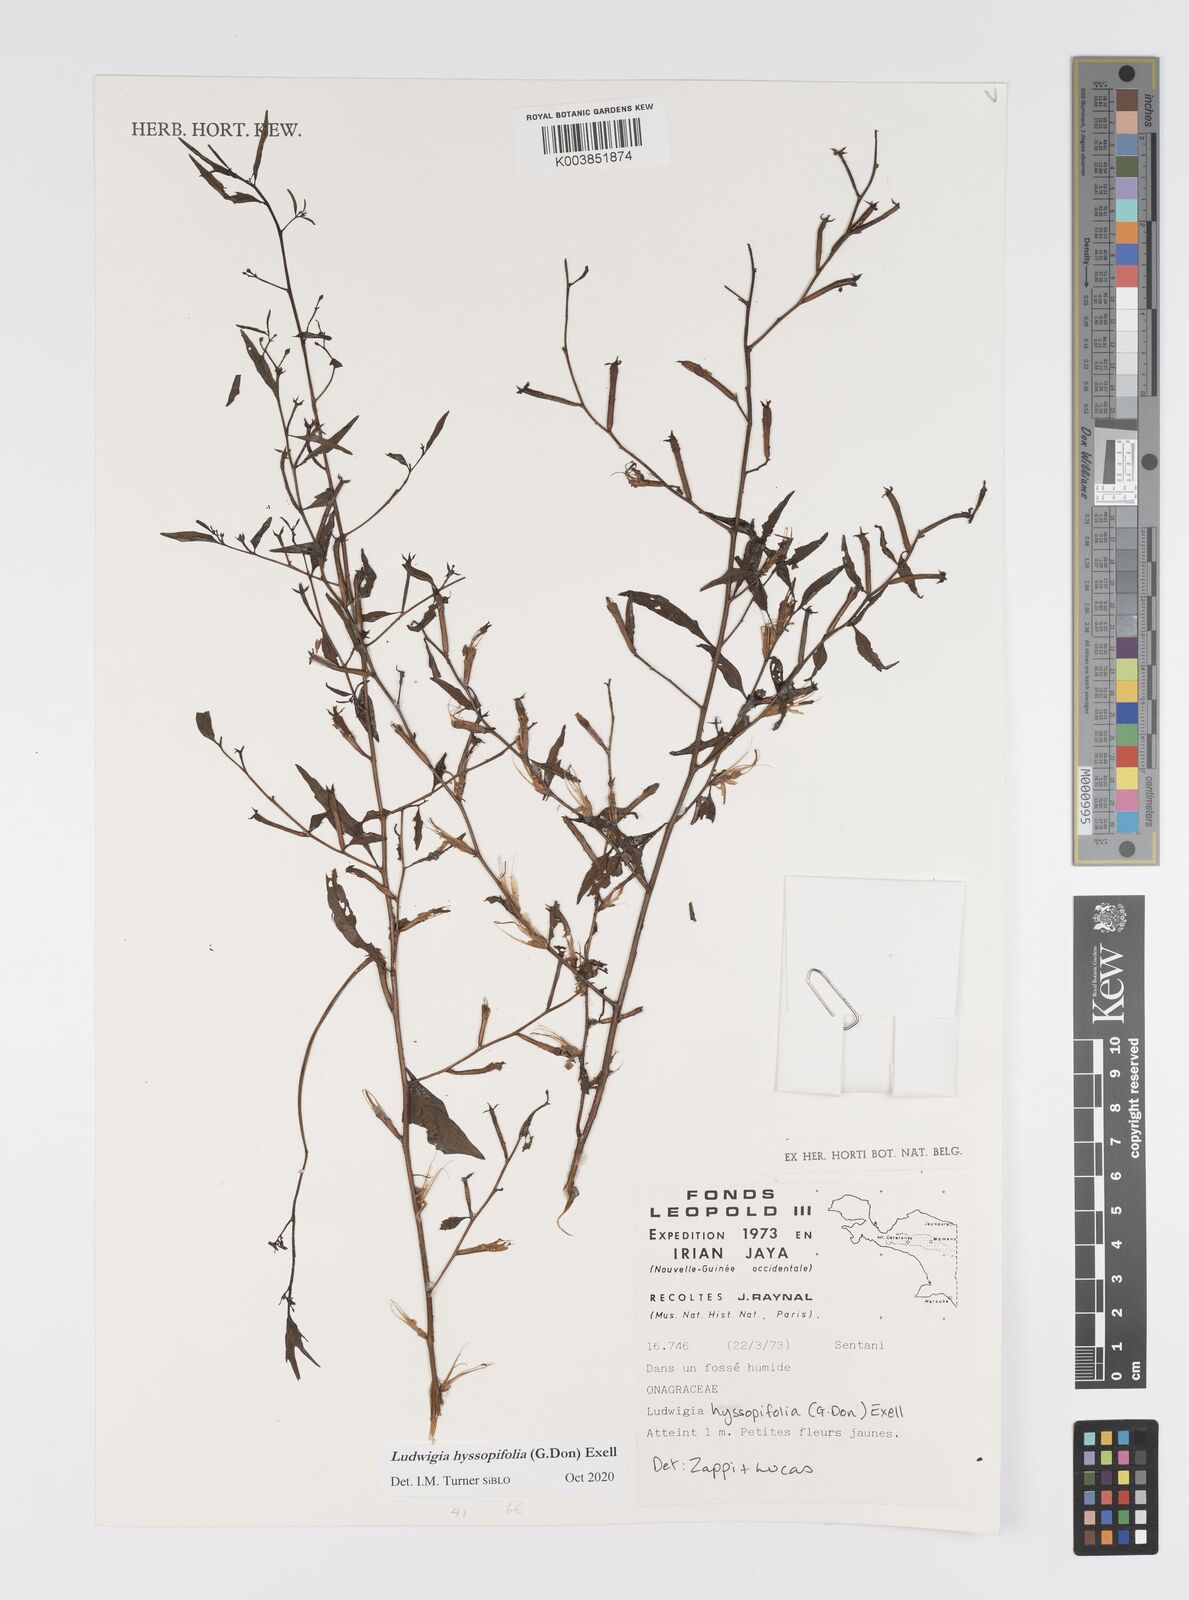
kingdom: Plantae
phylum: Tracheophyta
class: Magnoliopsida
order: Myrtales
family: Onagraceae
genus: Ludwigia
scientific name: Ludwigia hyssopifolia
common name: Linear leaf water primrose
